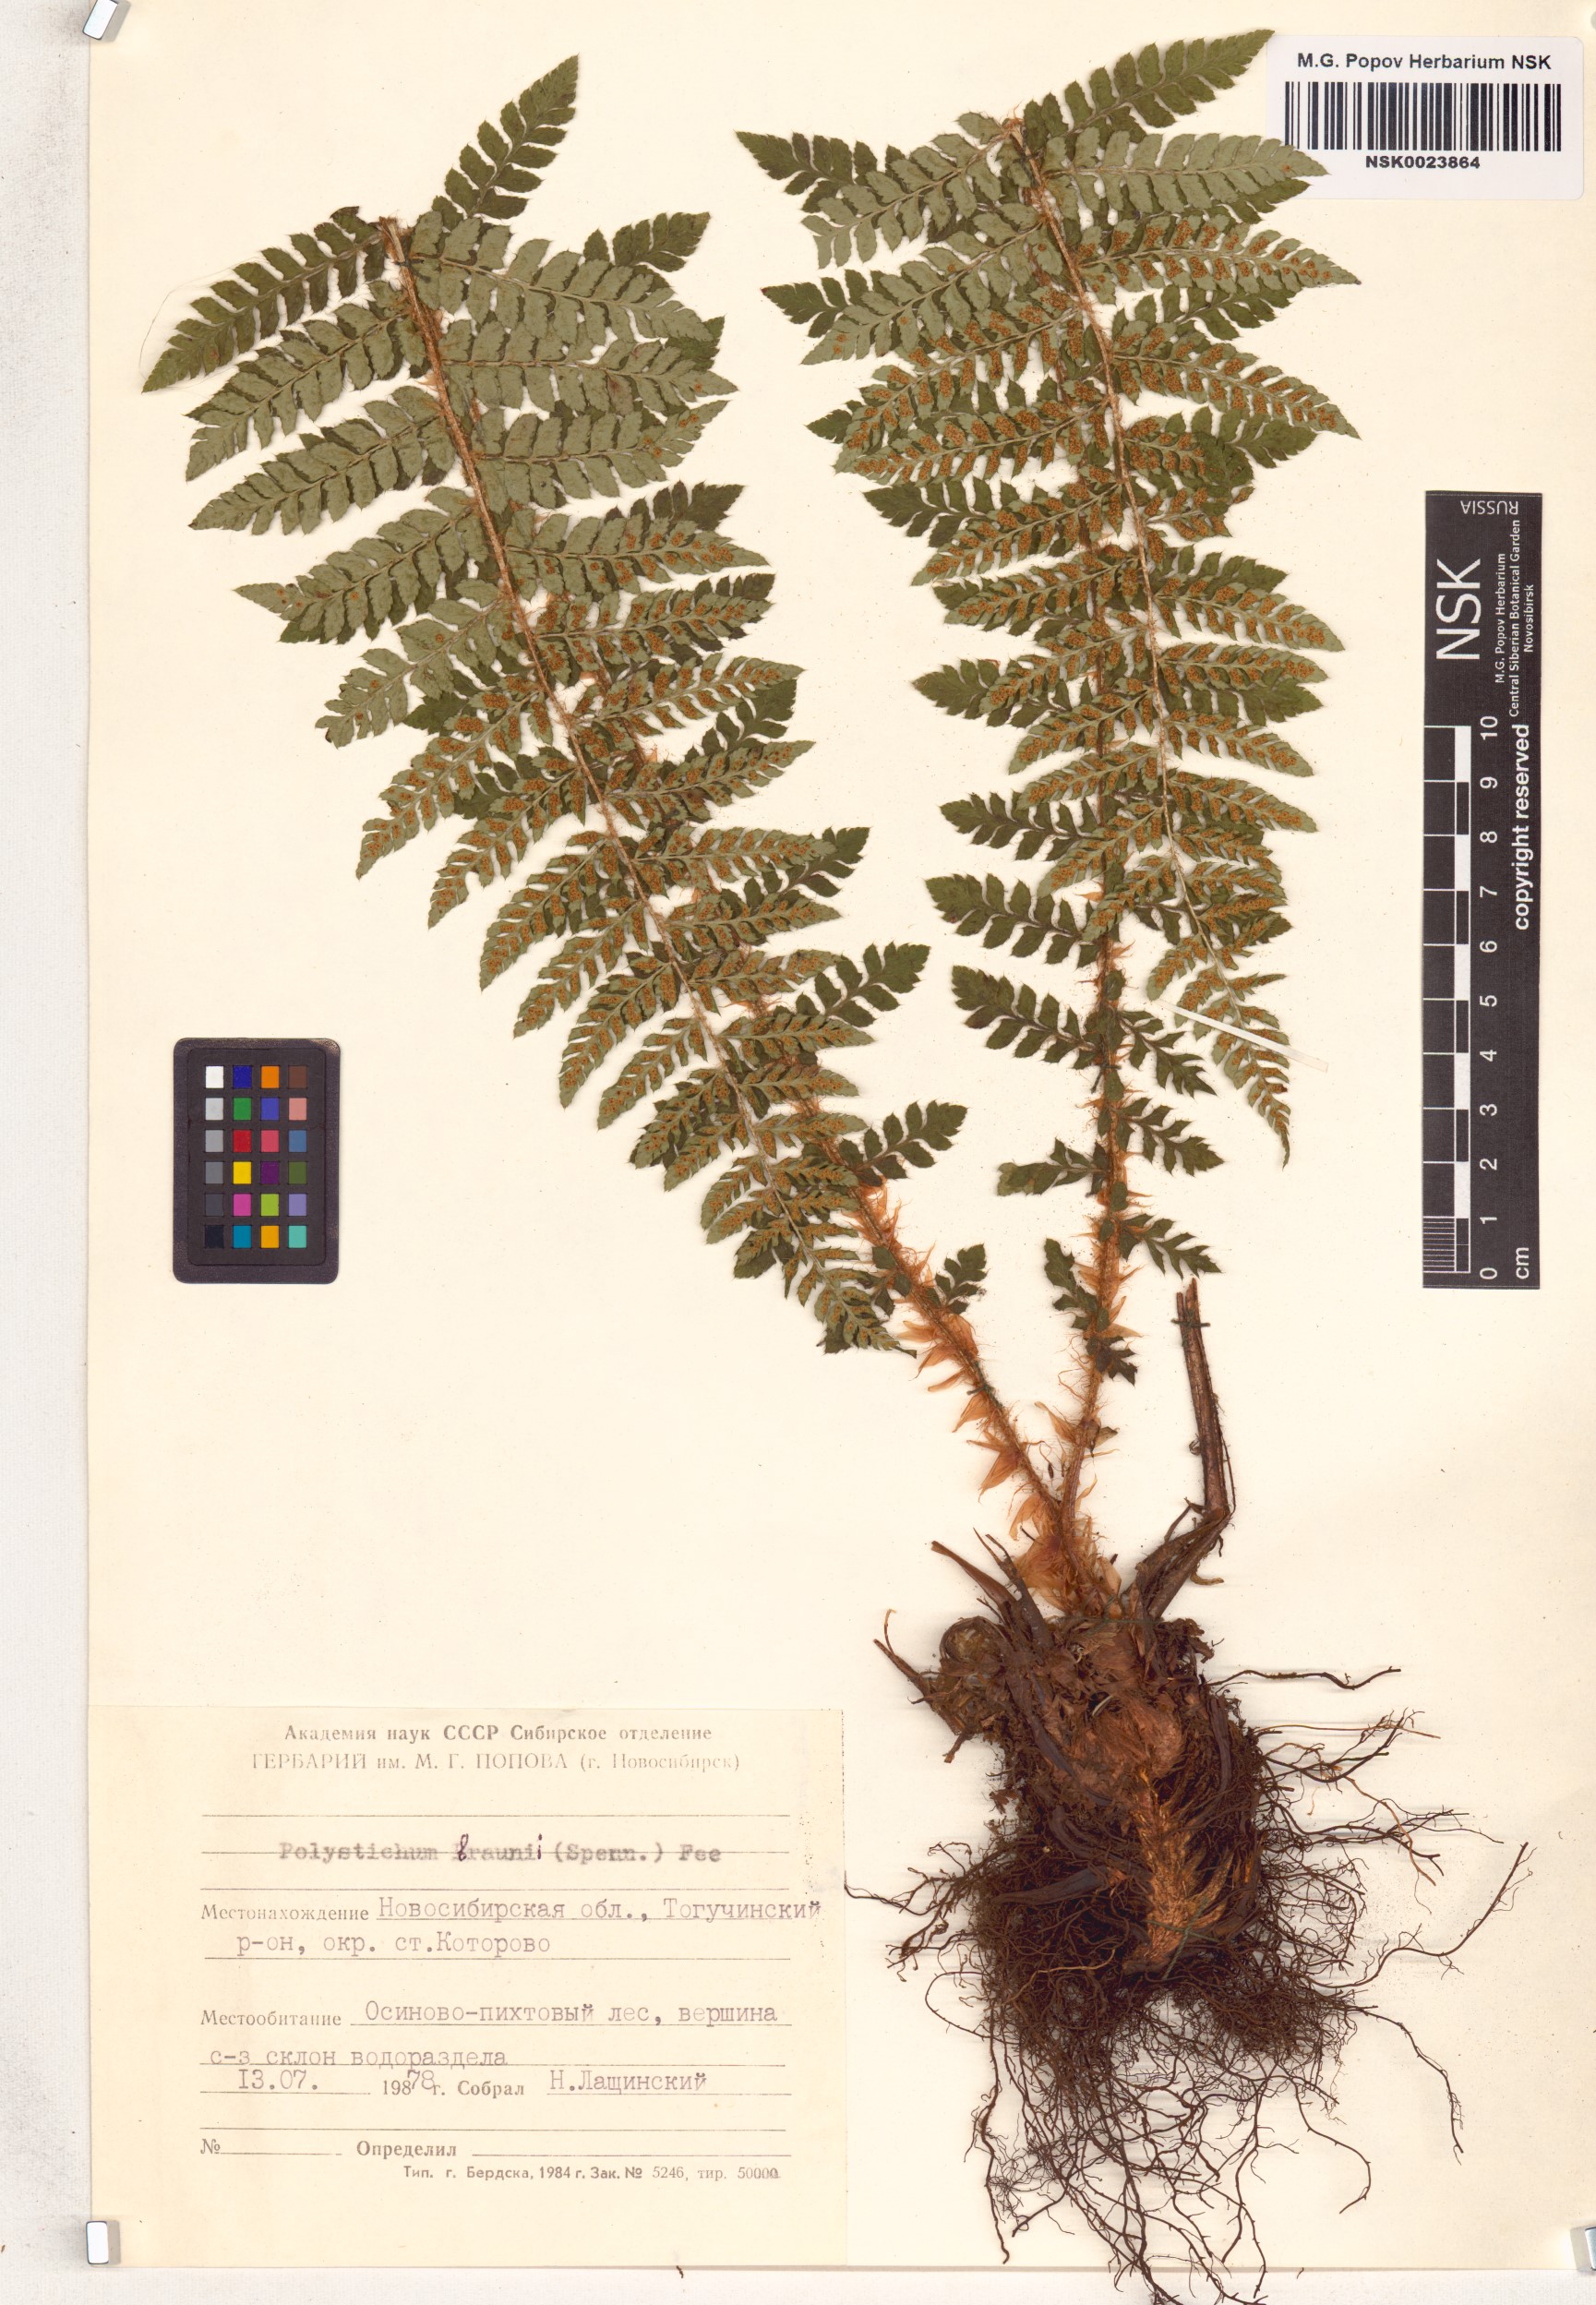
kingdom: Plantae
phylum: Tracheophyta
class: Polypodiopsida
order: Polypodiales
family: Dryopteridaceae
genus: Polystichum
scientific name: Polystichum braunii
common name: Braun's holly fern
